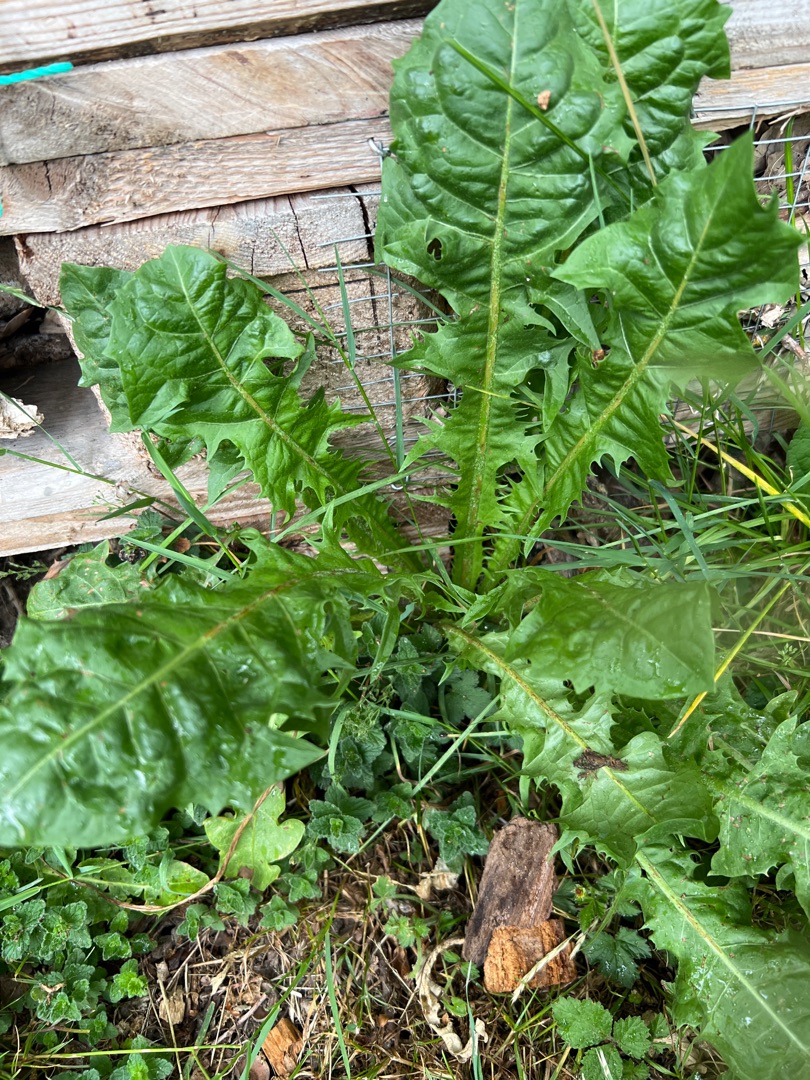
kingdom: Plantae
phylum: Tracheophyta
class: Magnoliopsida
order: Asterales
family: Asteraceae
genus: Taraxacum
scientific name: Taraxacum
